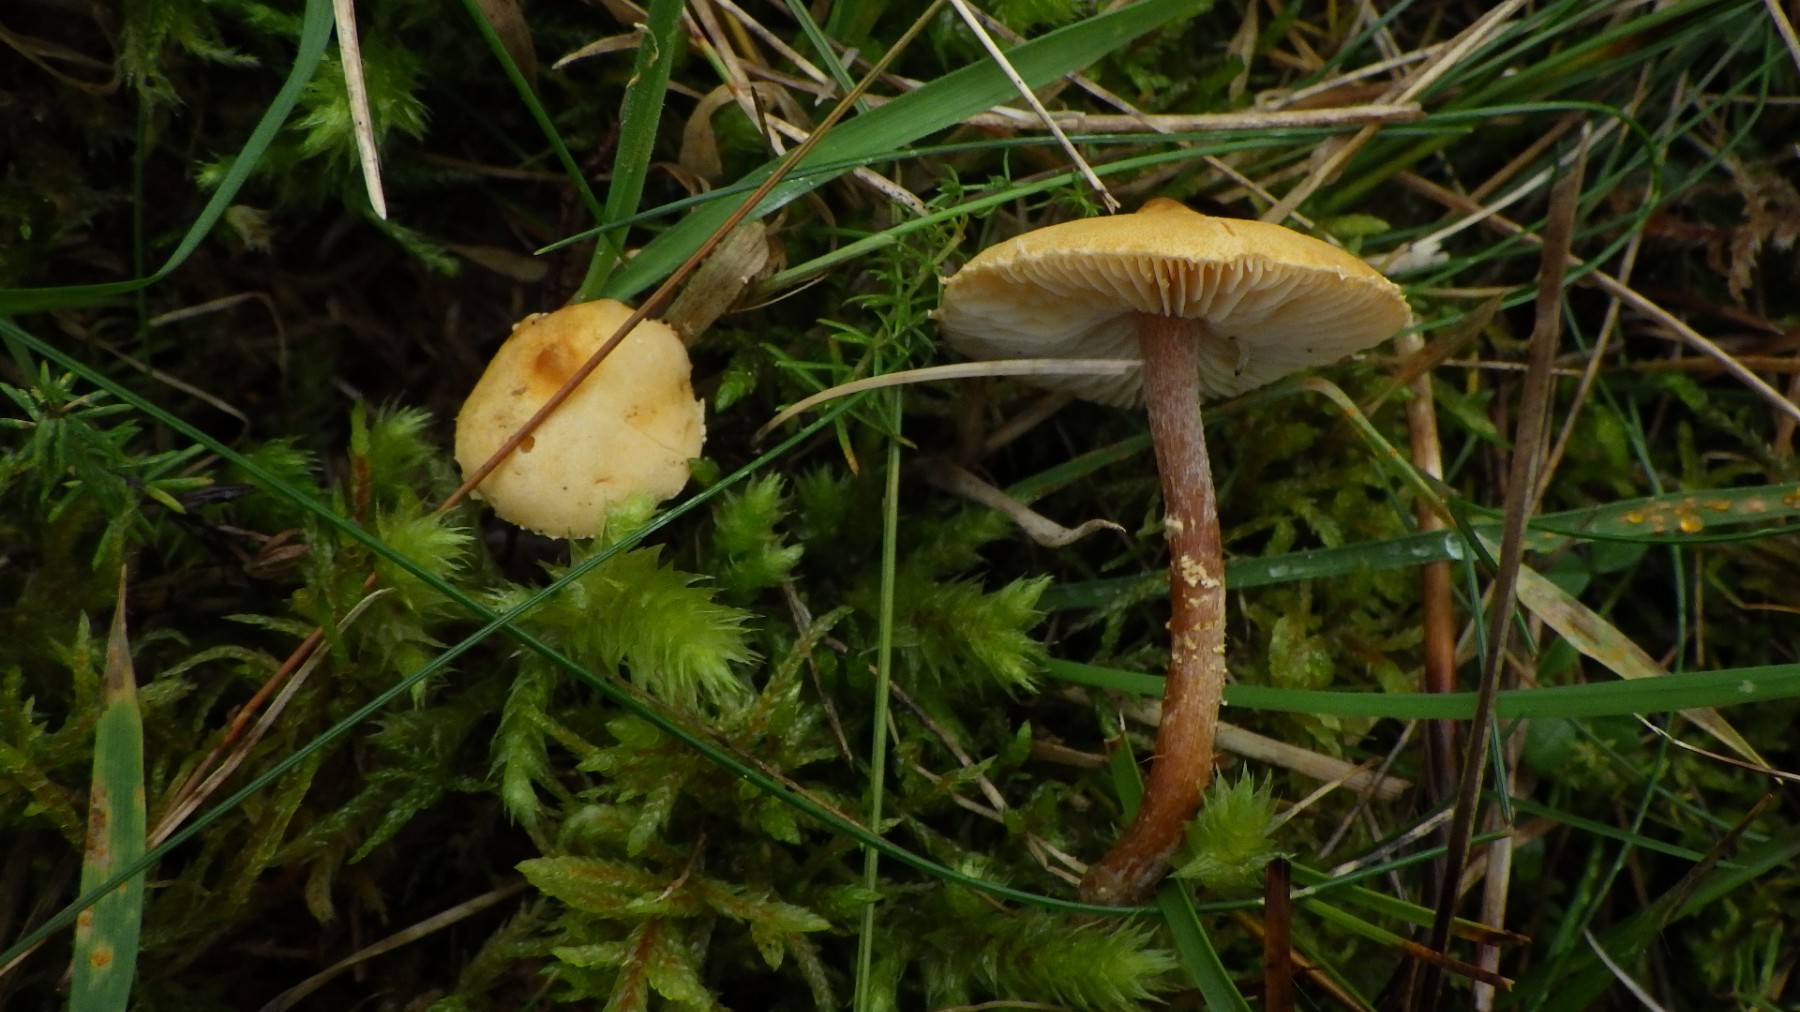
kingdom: Fungi
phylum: Basidiomycota
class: Agaricomycetes
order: Agaricales
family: Tricholomataceae
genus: Cystoderma
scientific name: Cystoderma amianthinum
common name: okkergul grynhat
